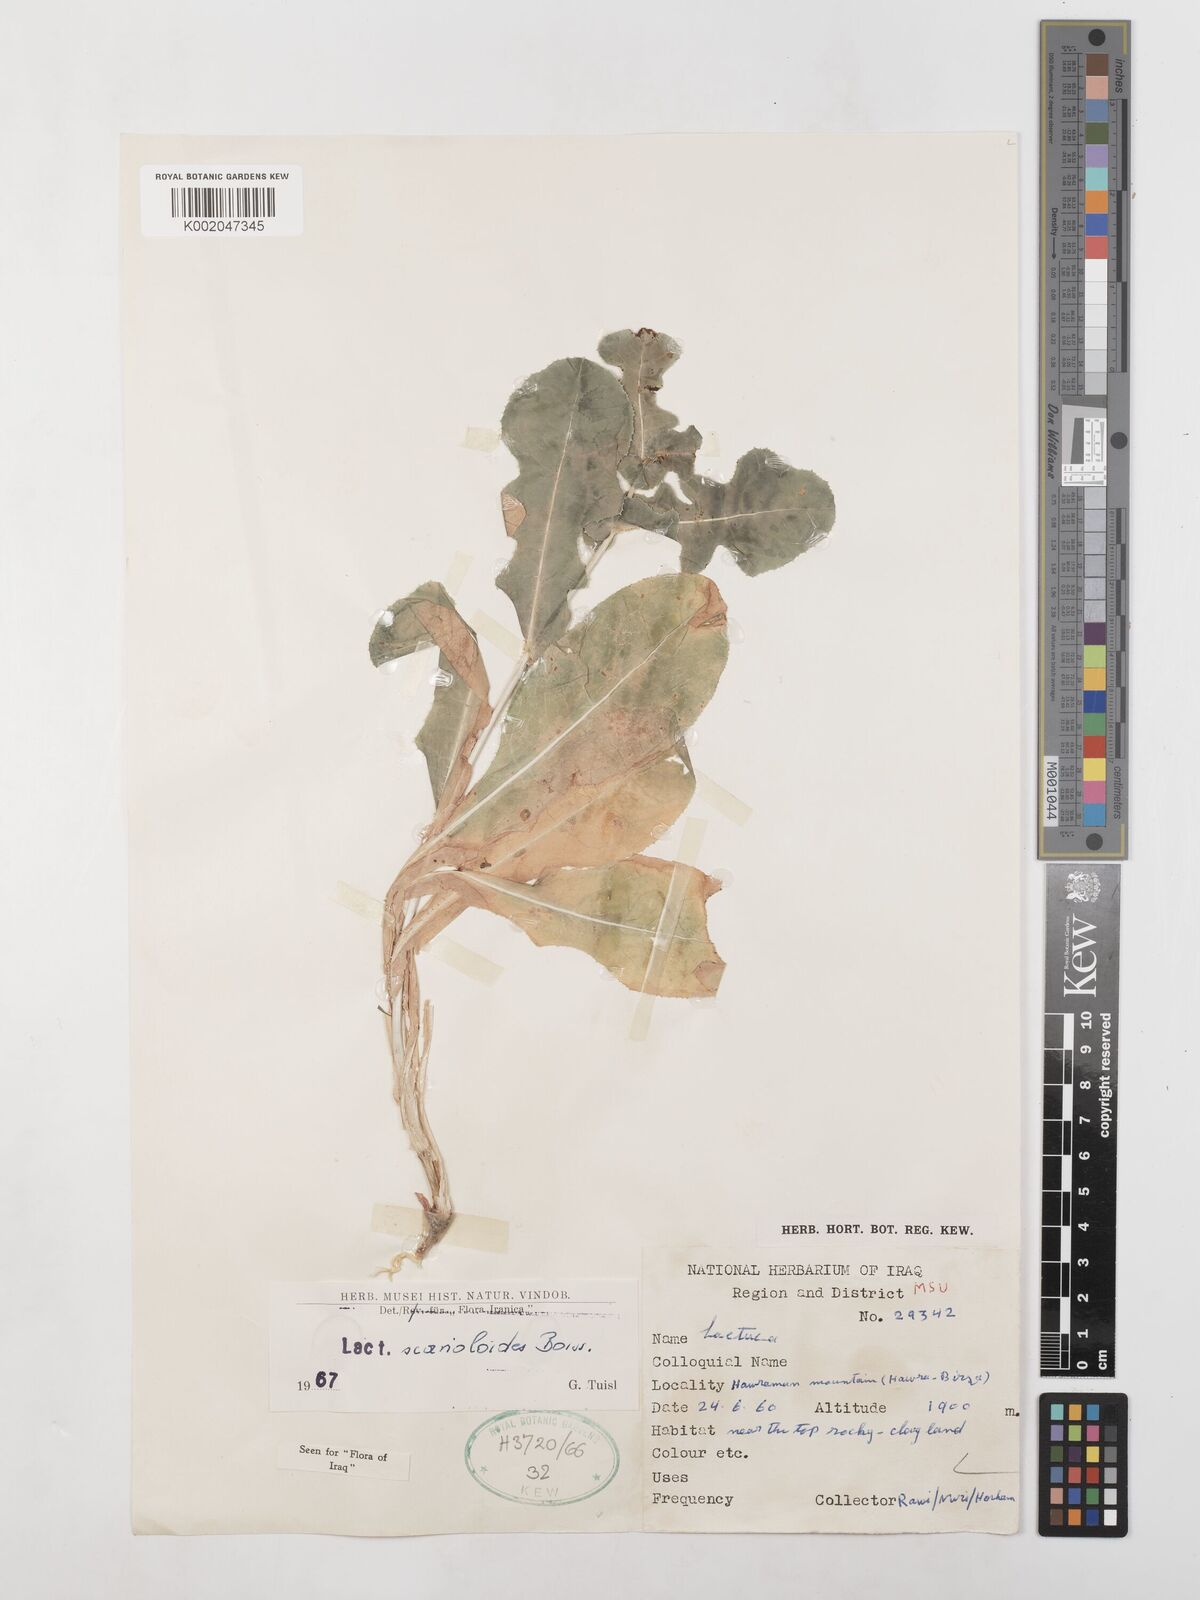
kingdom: Plantae
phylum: Tracheophyta
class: Magnoliopsida
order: Asterales
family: Asteraceae
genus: Lactuca
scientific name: Lactuca scarioloides
